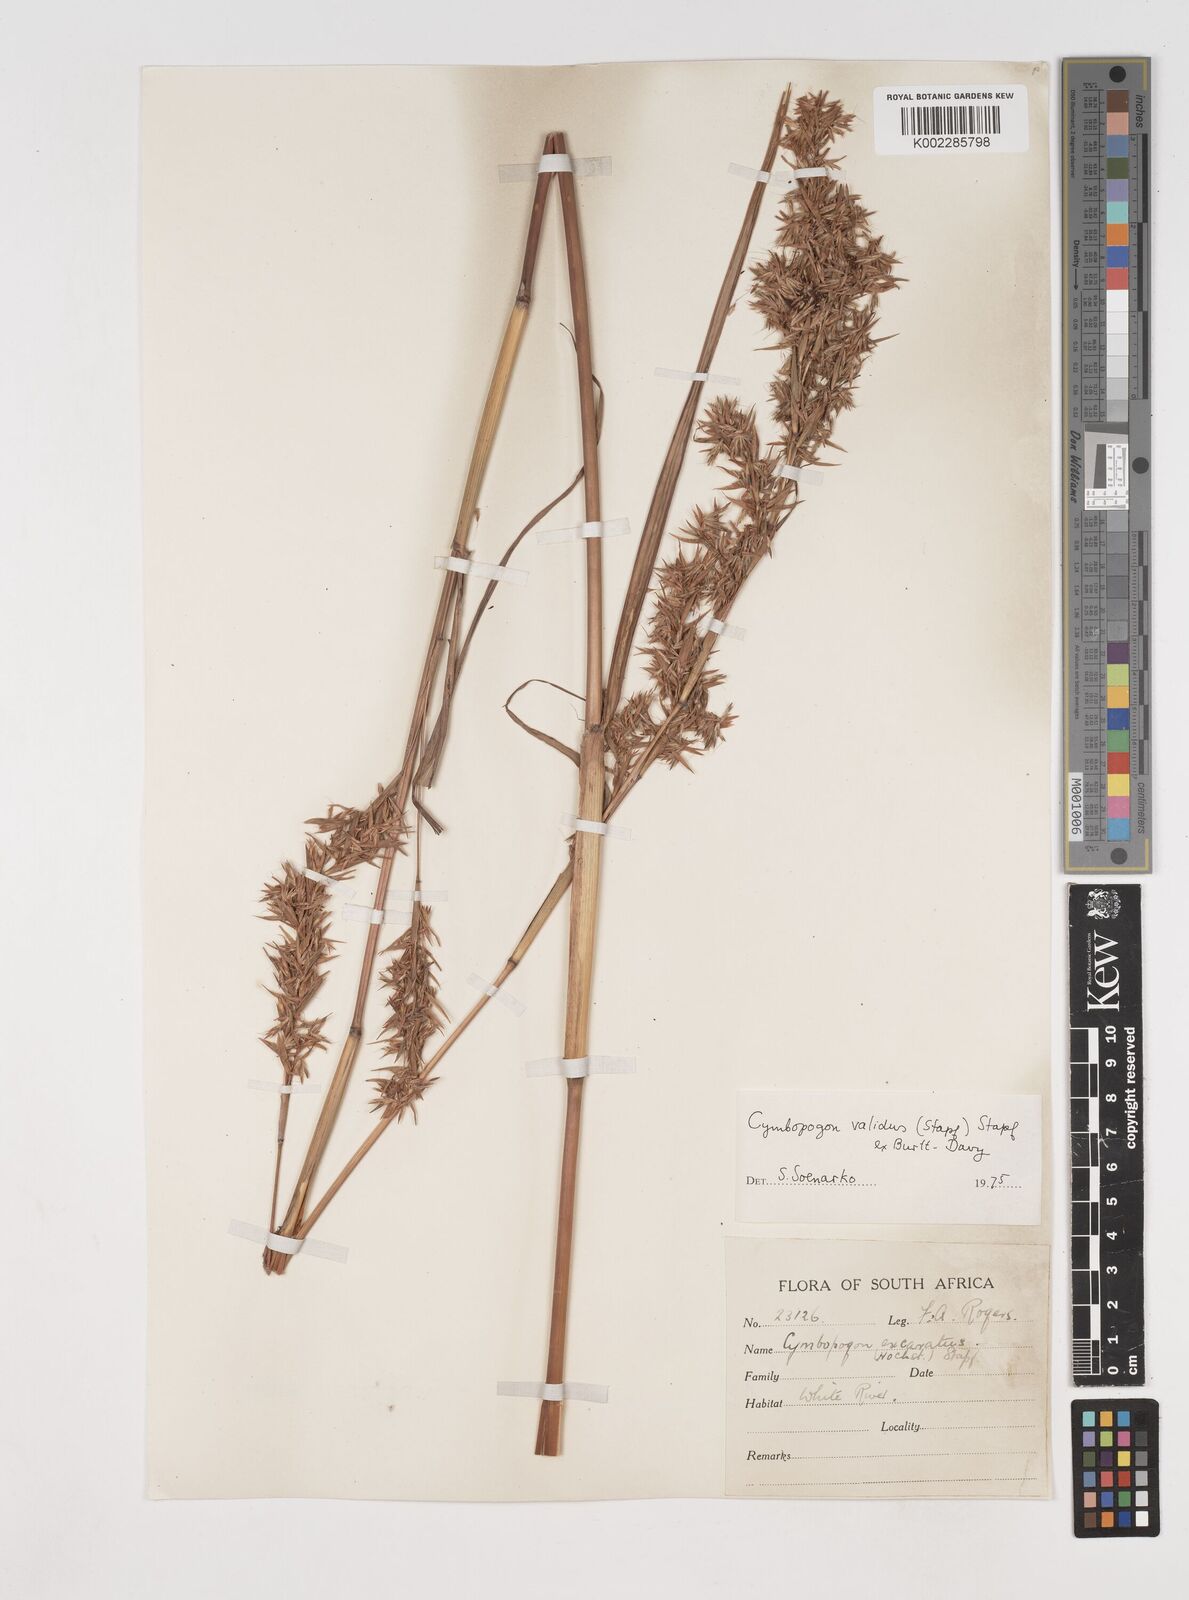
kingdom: Plantae
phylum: Tracheophyta
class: Liliopsida
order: Poales
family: Poaceae
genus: Cymbopogon
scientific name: Cymbopogon nardus
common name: Giant turpentine grass
